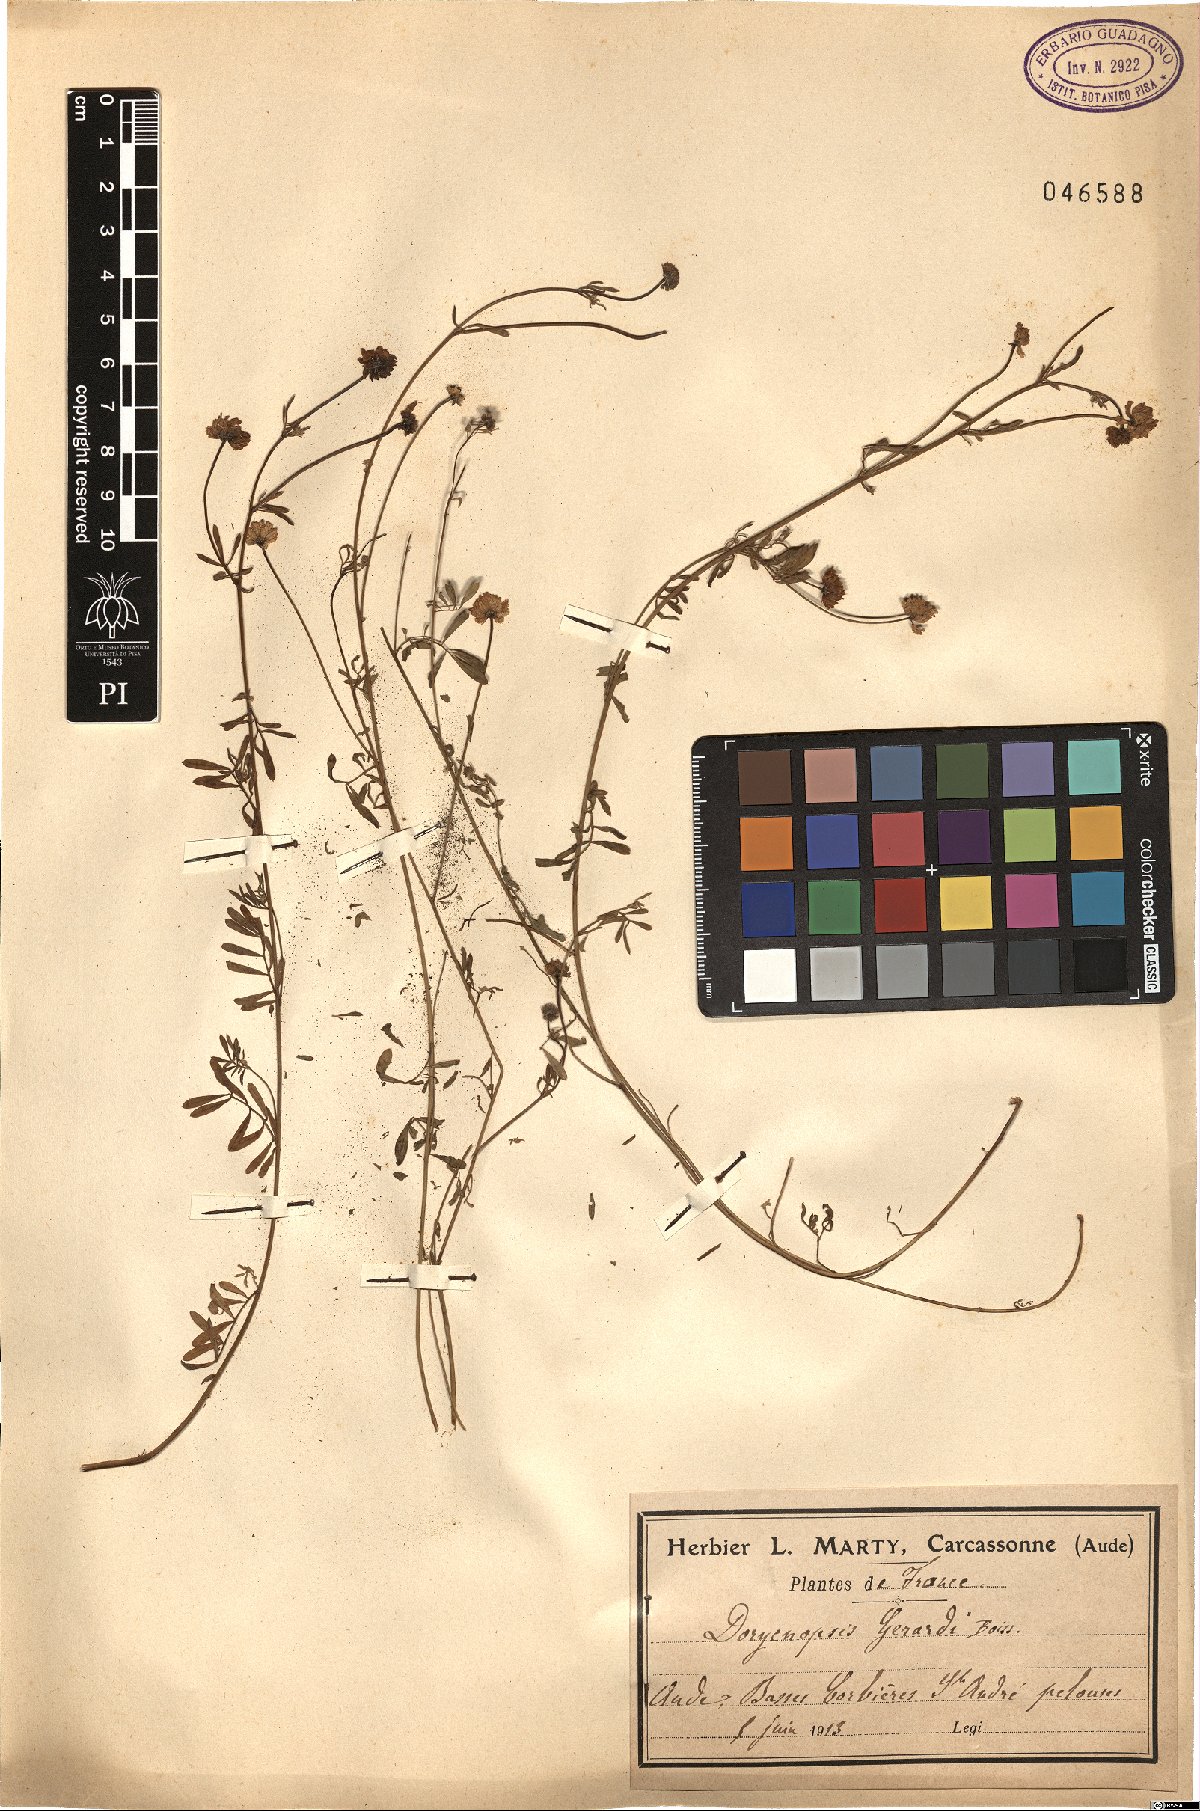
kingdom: Plantae
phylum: Tracheophyta
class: Magnoliopsida
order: Fabales
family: Fabaceae
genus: Dorycnopsis
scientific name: Dorycnopsis gerardi
